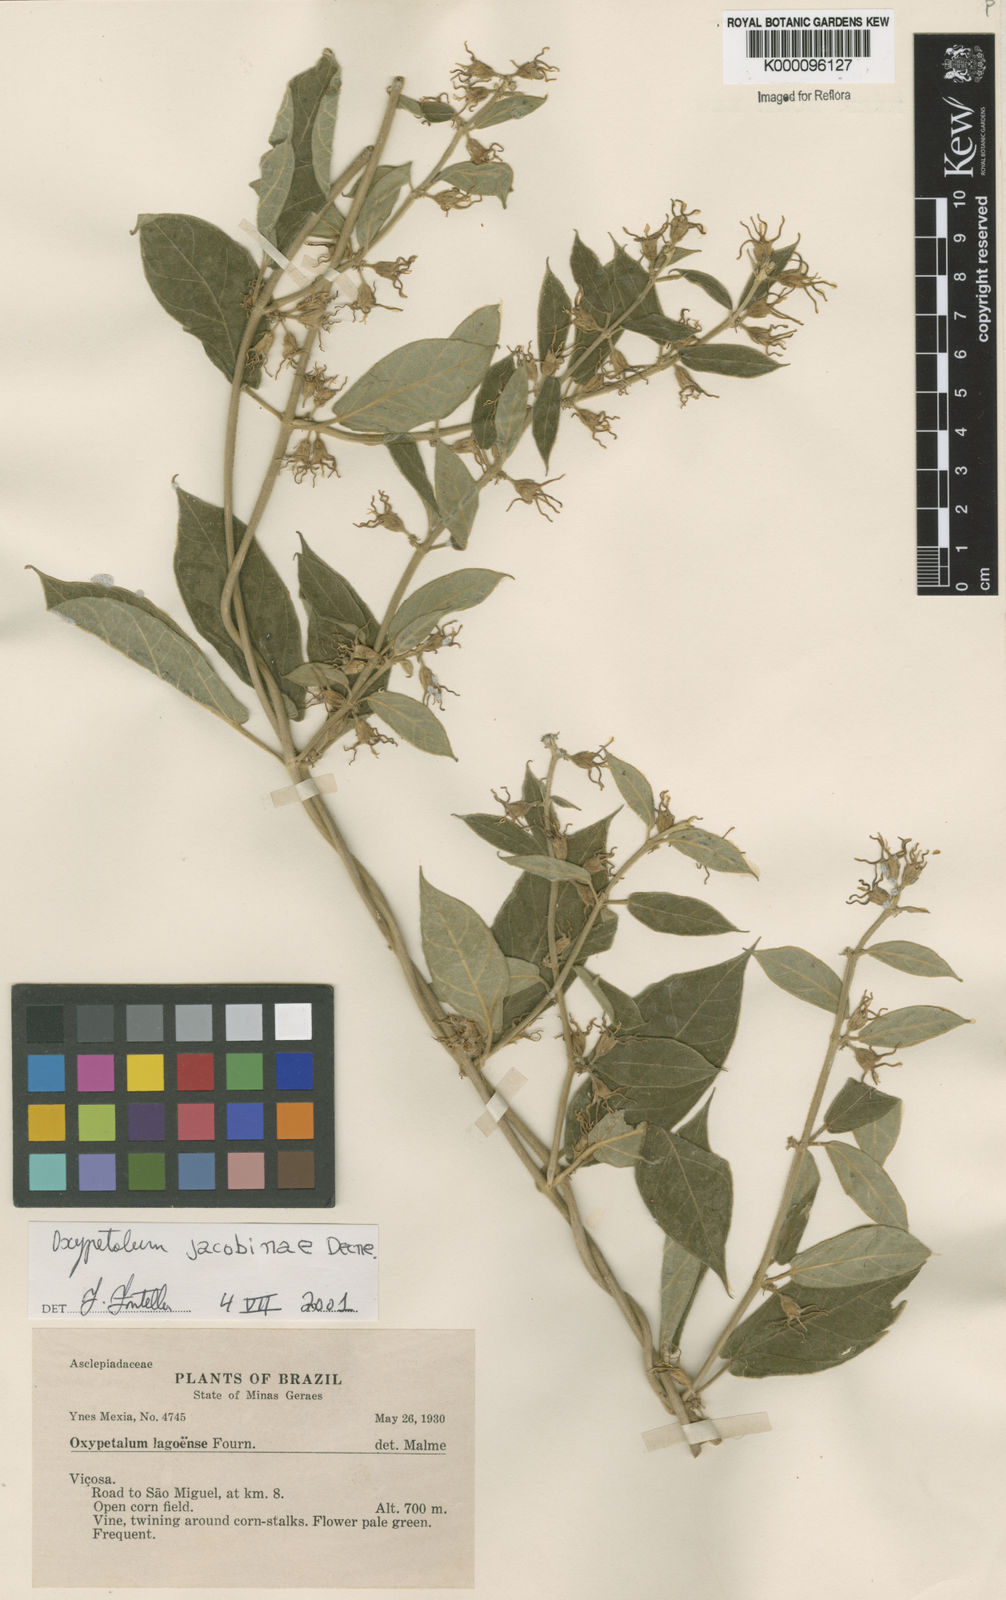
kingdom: Plantae
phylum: Tracheophyta
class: Magnoliopsida
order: Gentianales
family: Apocynaceae
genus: Oxypetalum
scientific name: Oxypetalum jacobinae
